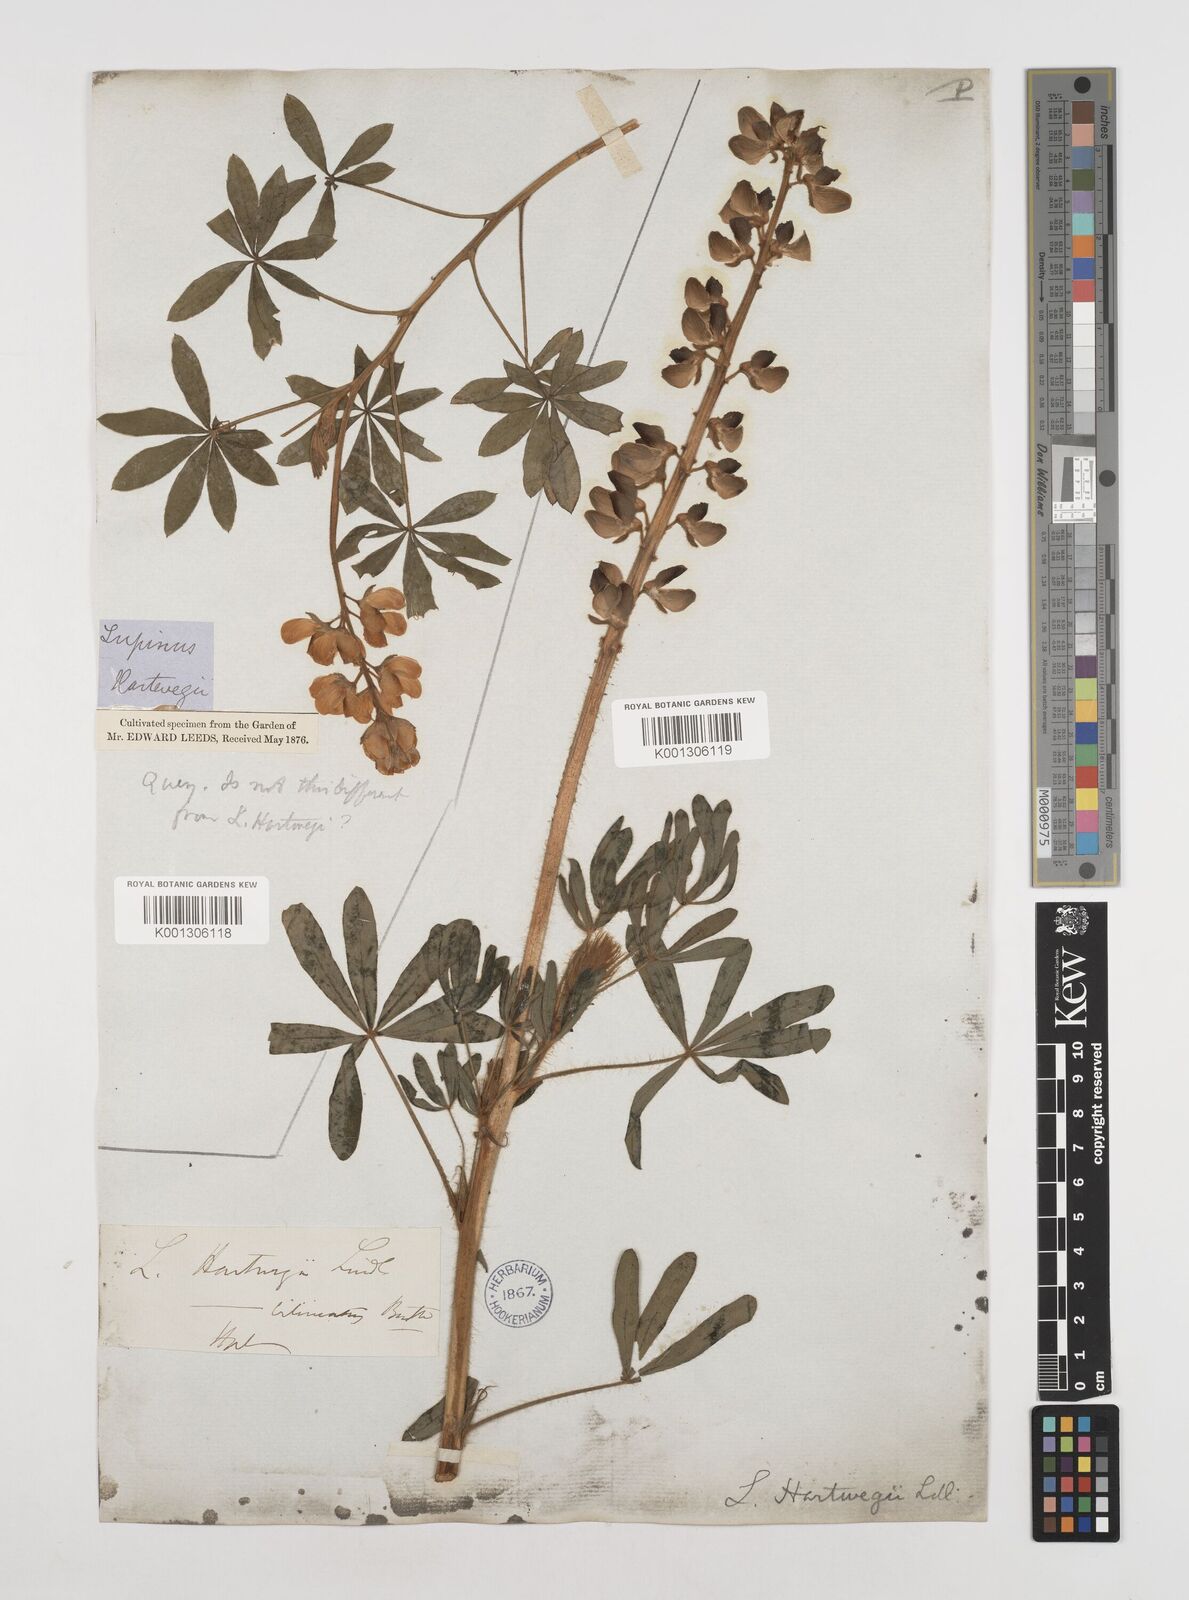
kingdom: Plantae
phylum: Tracheophyta
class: Magnoliopsida
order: Fabales
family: Fabaceae
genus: Lupinus
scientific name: Lupinus ehrenbergii
